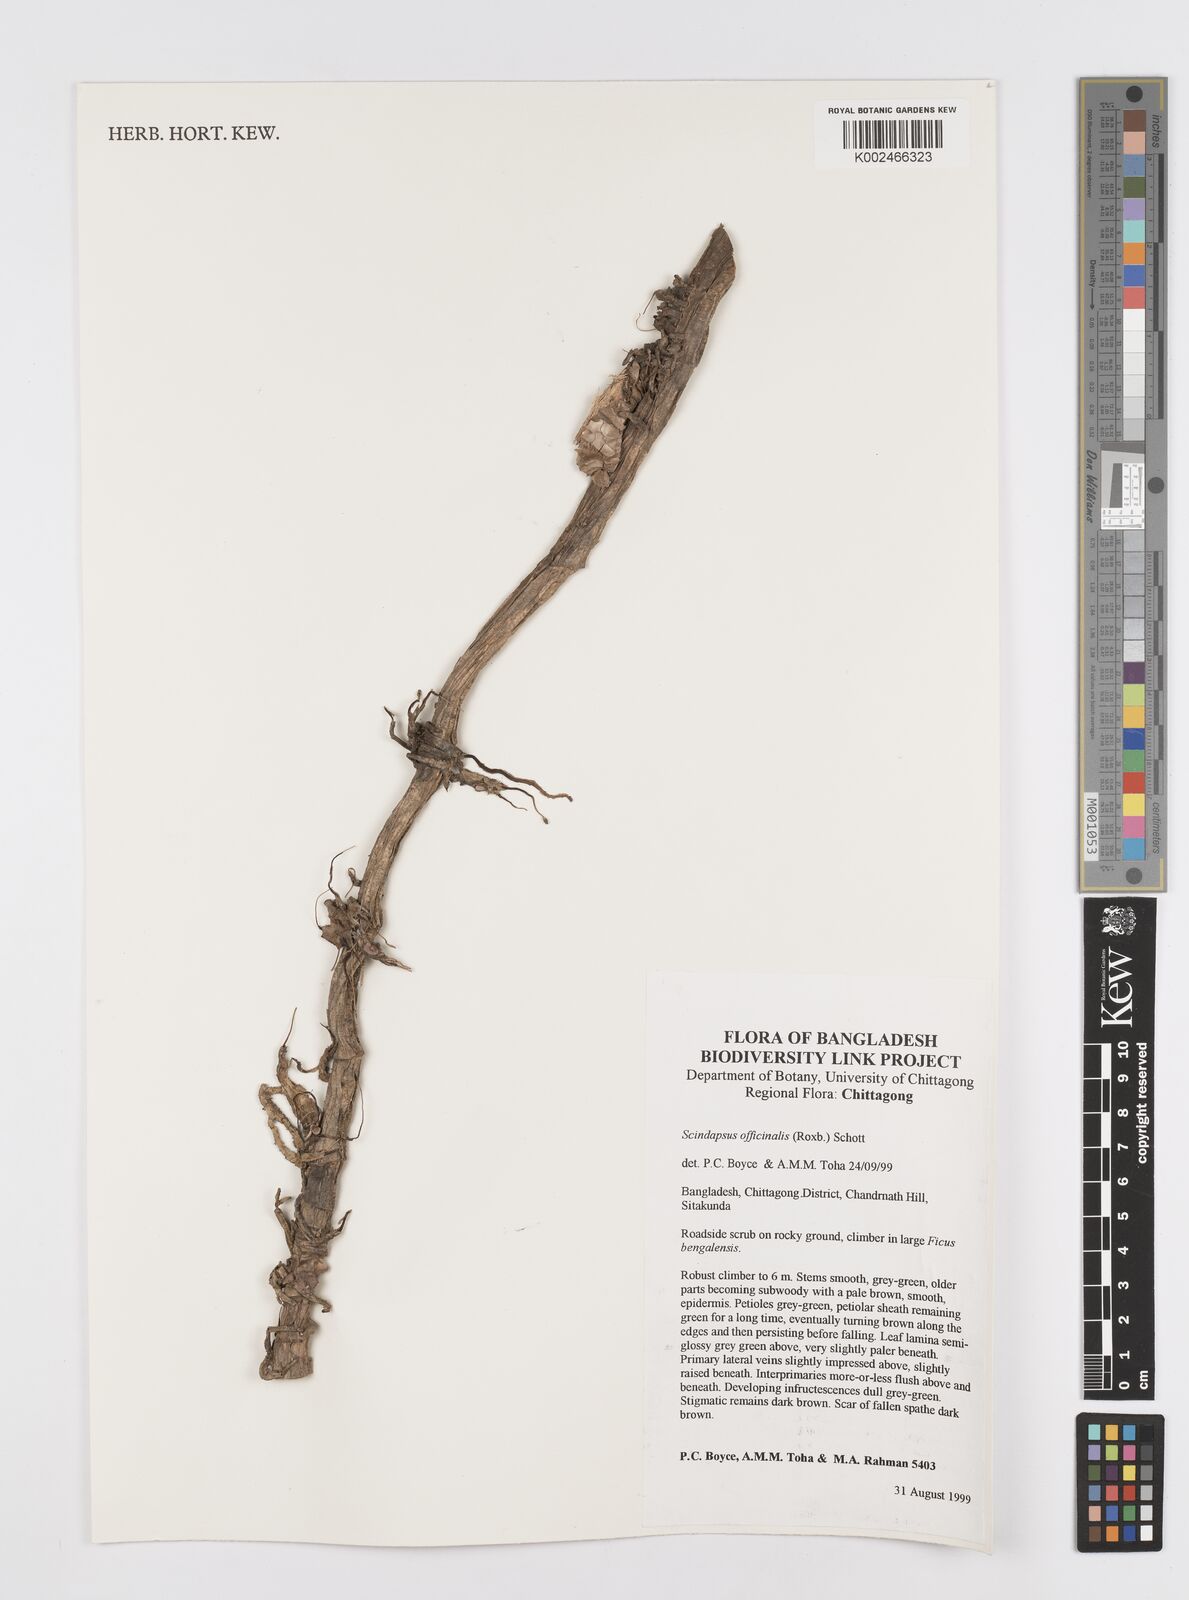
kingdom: Plantae
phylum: Tracheophyta
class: Liliopsida
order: Alismatales
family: Araceae
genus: Scindapsus
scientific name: Scindapsus officinalis
